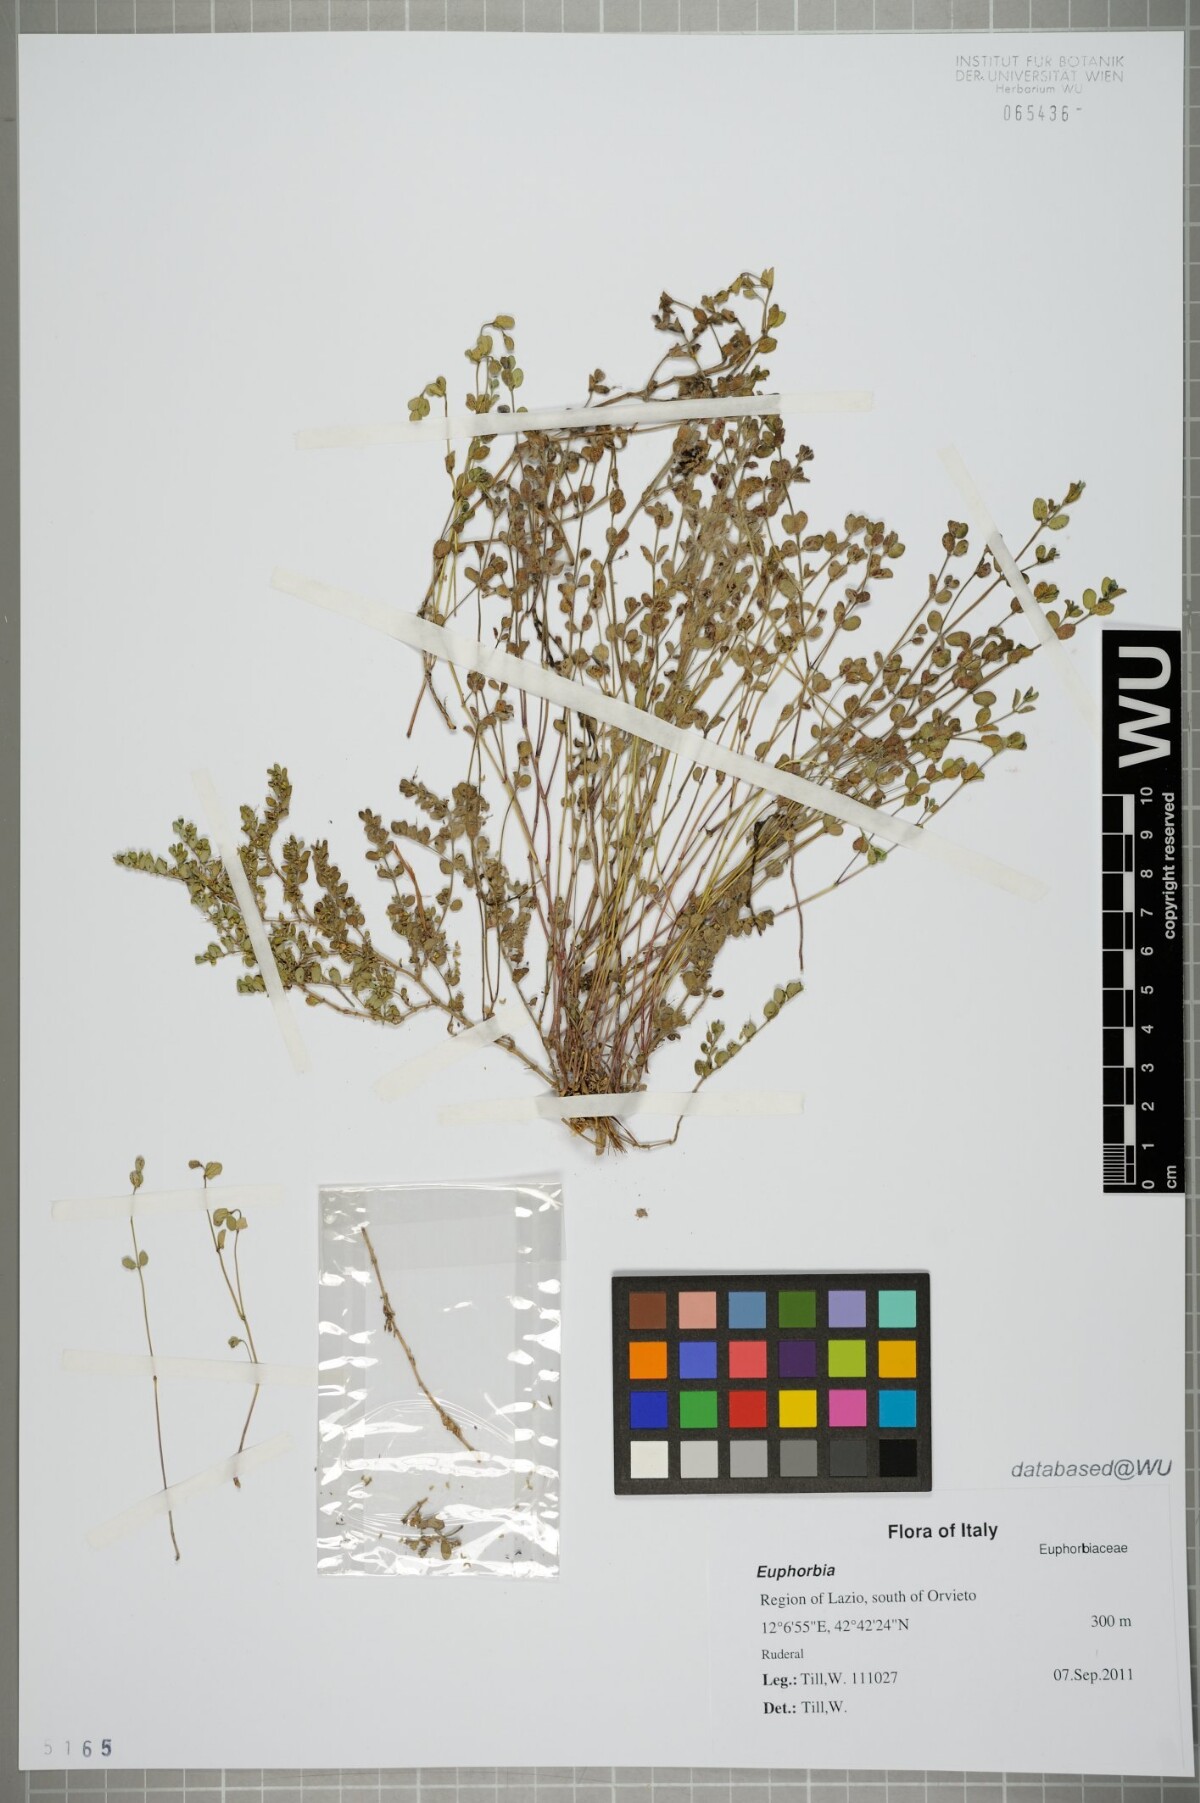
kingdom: Plantae
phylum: Tracheophyta
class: Magnoliopsida
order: Malpighiales
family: Euphorbiaceae
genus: Euphorbia
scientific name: Euphorbia
